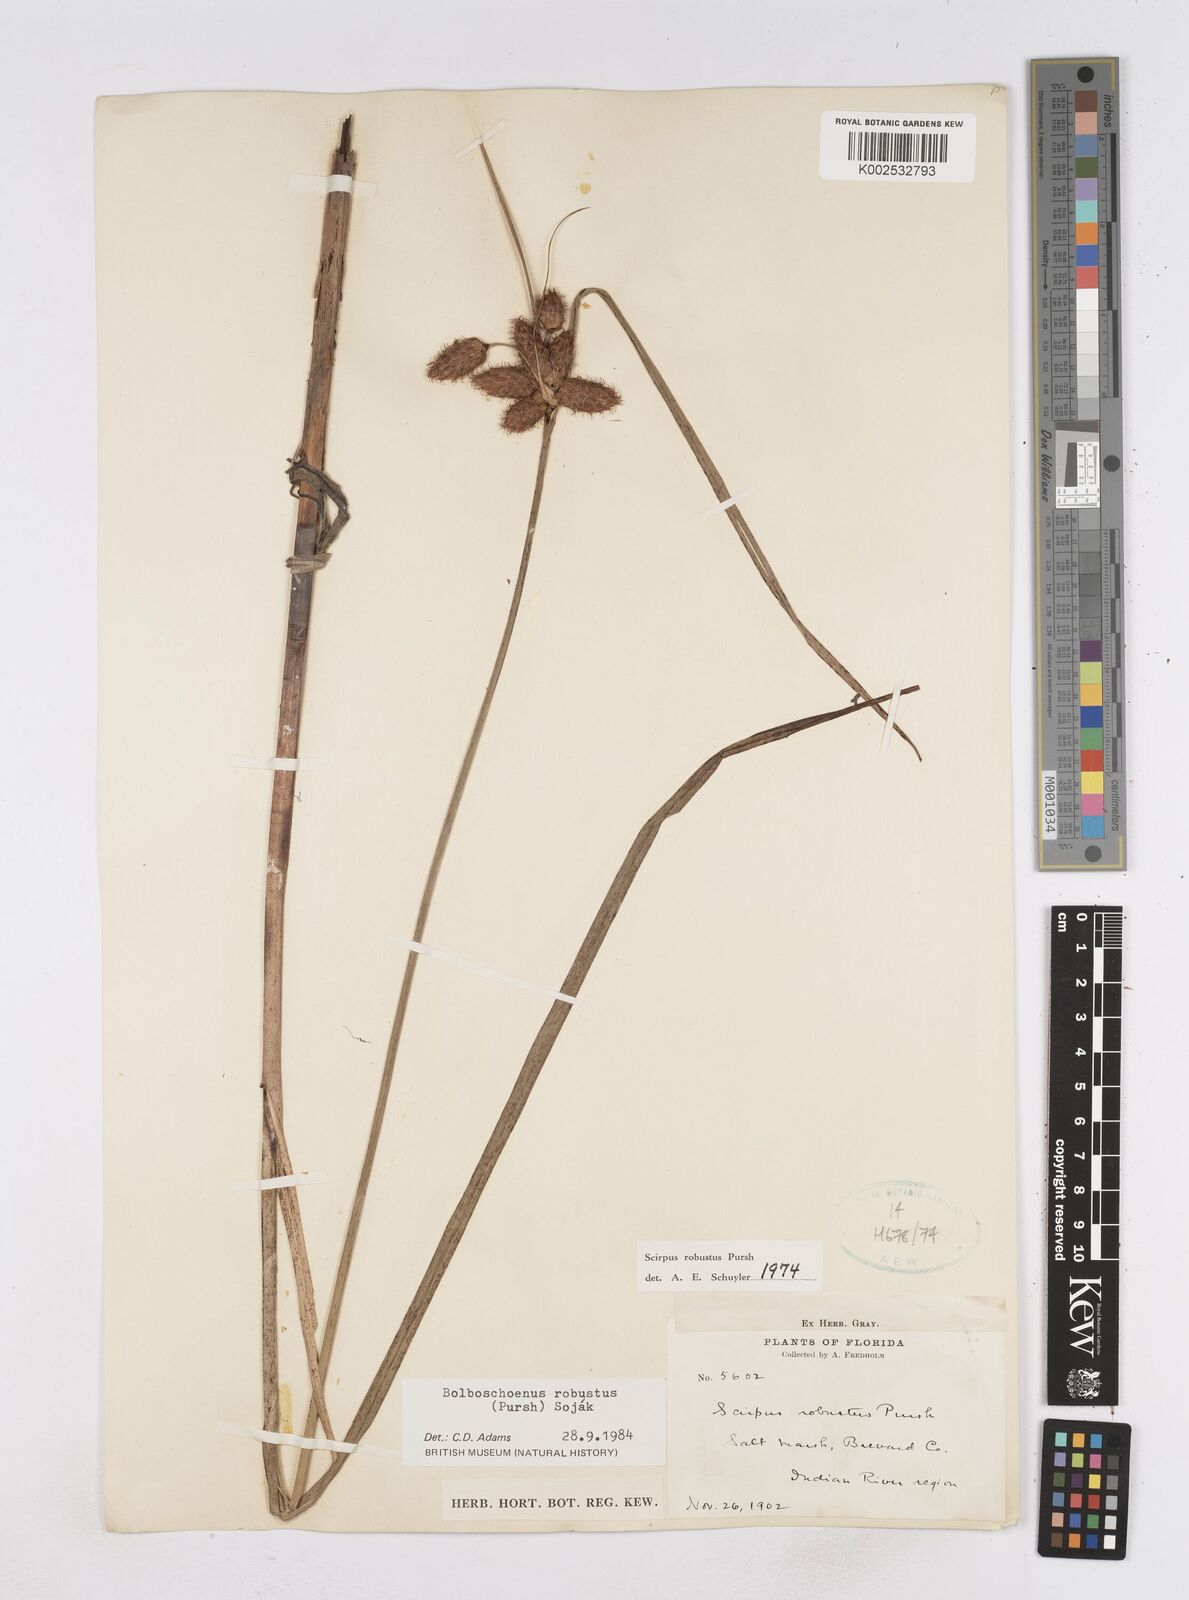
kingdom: Plantae
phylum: Tracheophyta
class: Liliopsida
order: Poales
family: Cyperaceae
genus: Bolboschoenus
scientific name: Bolboschoenus robustus
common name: Seacoast bulrush
